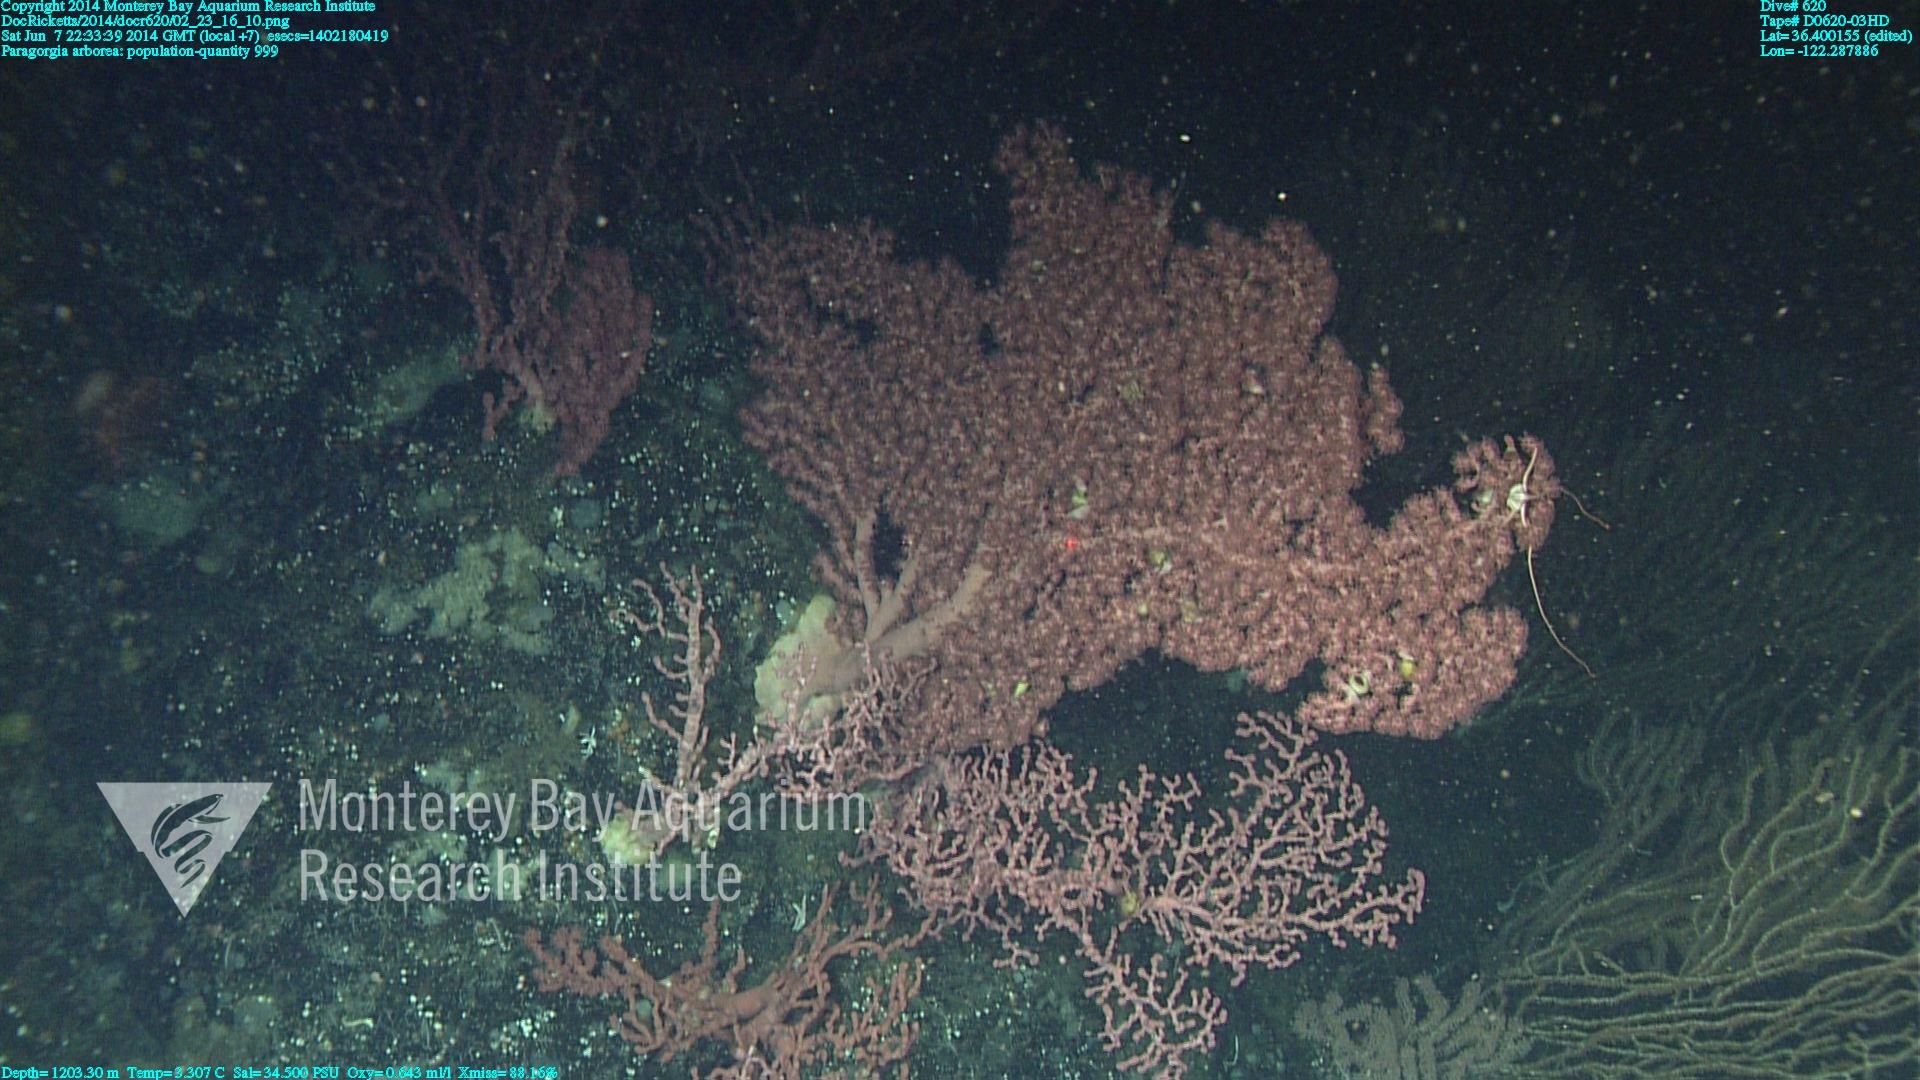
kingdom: Animalia
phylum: Cnidaria
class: Anthozoa
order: Scleralcyonacea
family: Coralliidae
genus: Paragorgia
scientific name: Paragorgia arborea
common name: Bubble gum coral
